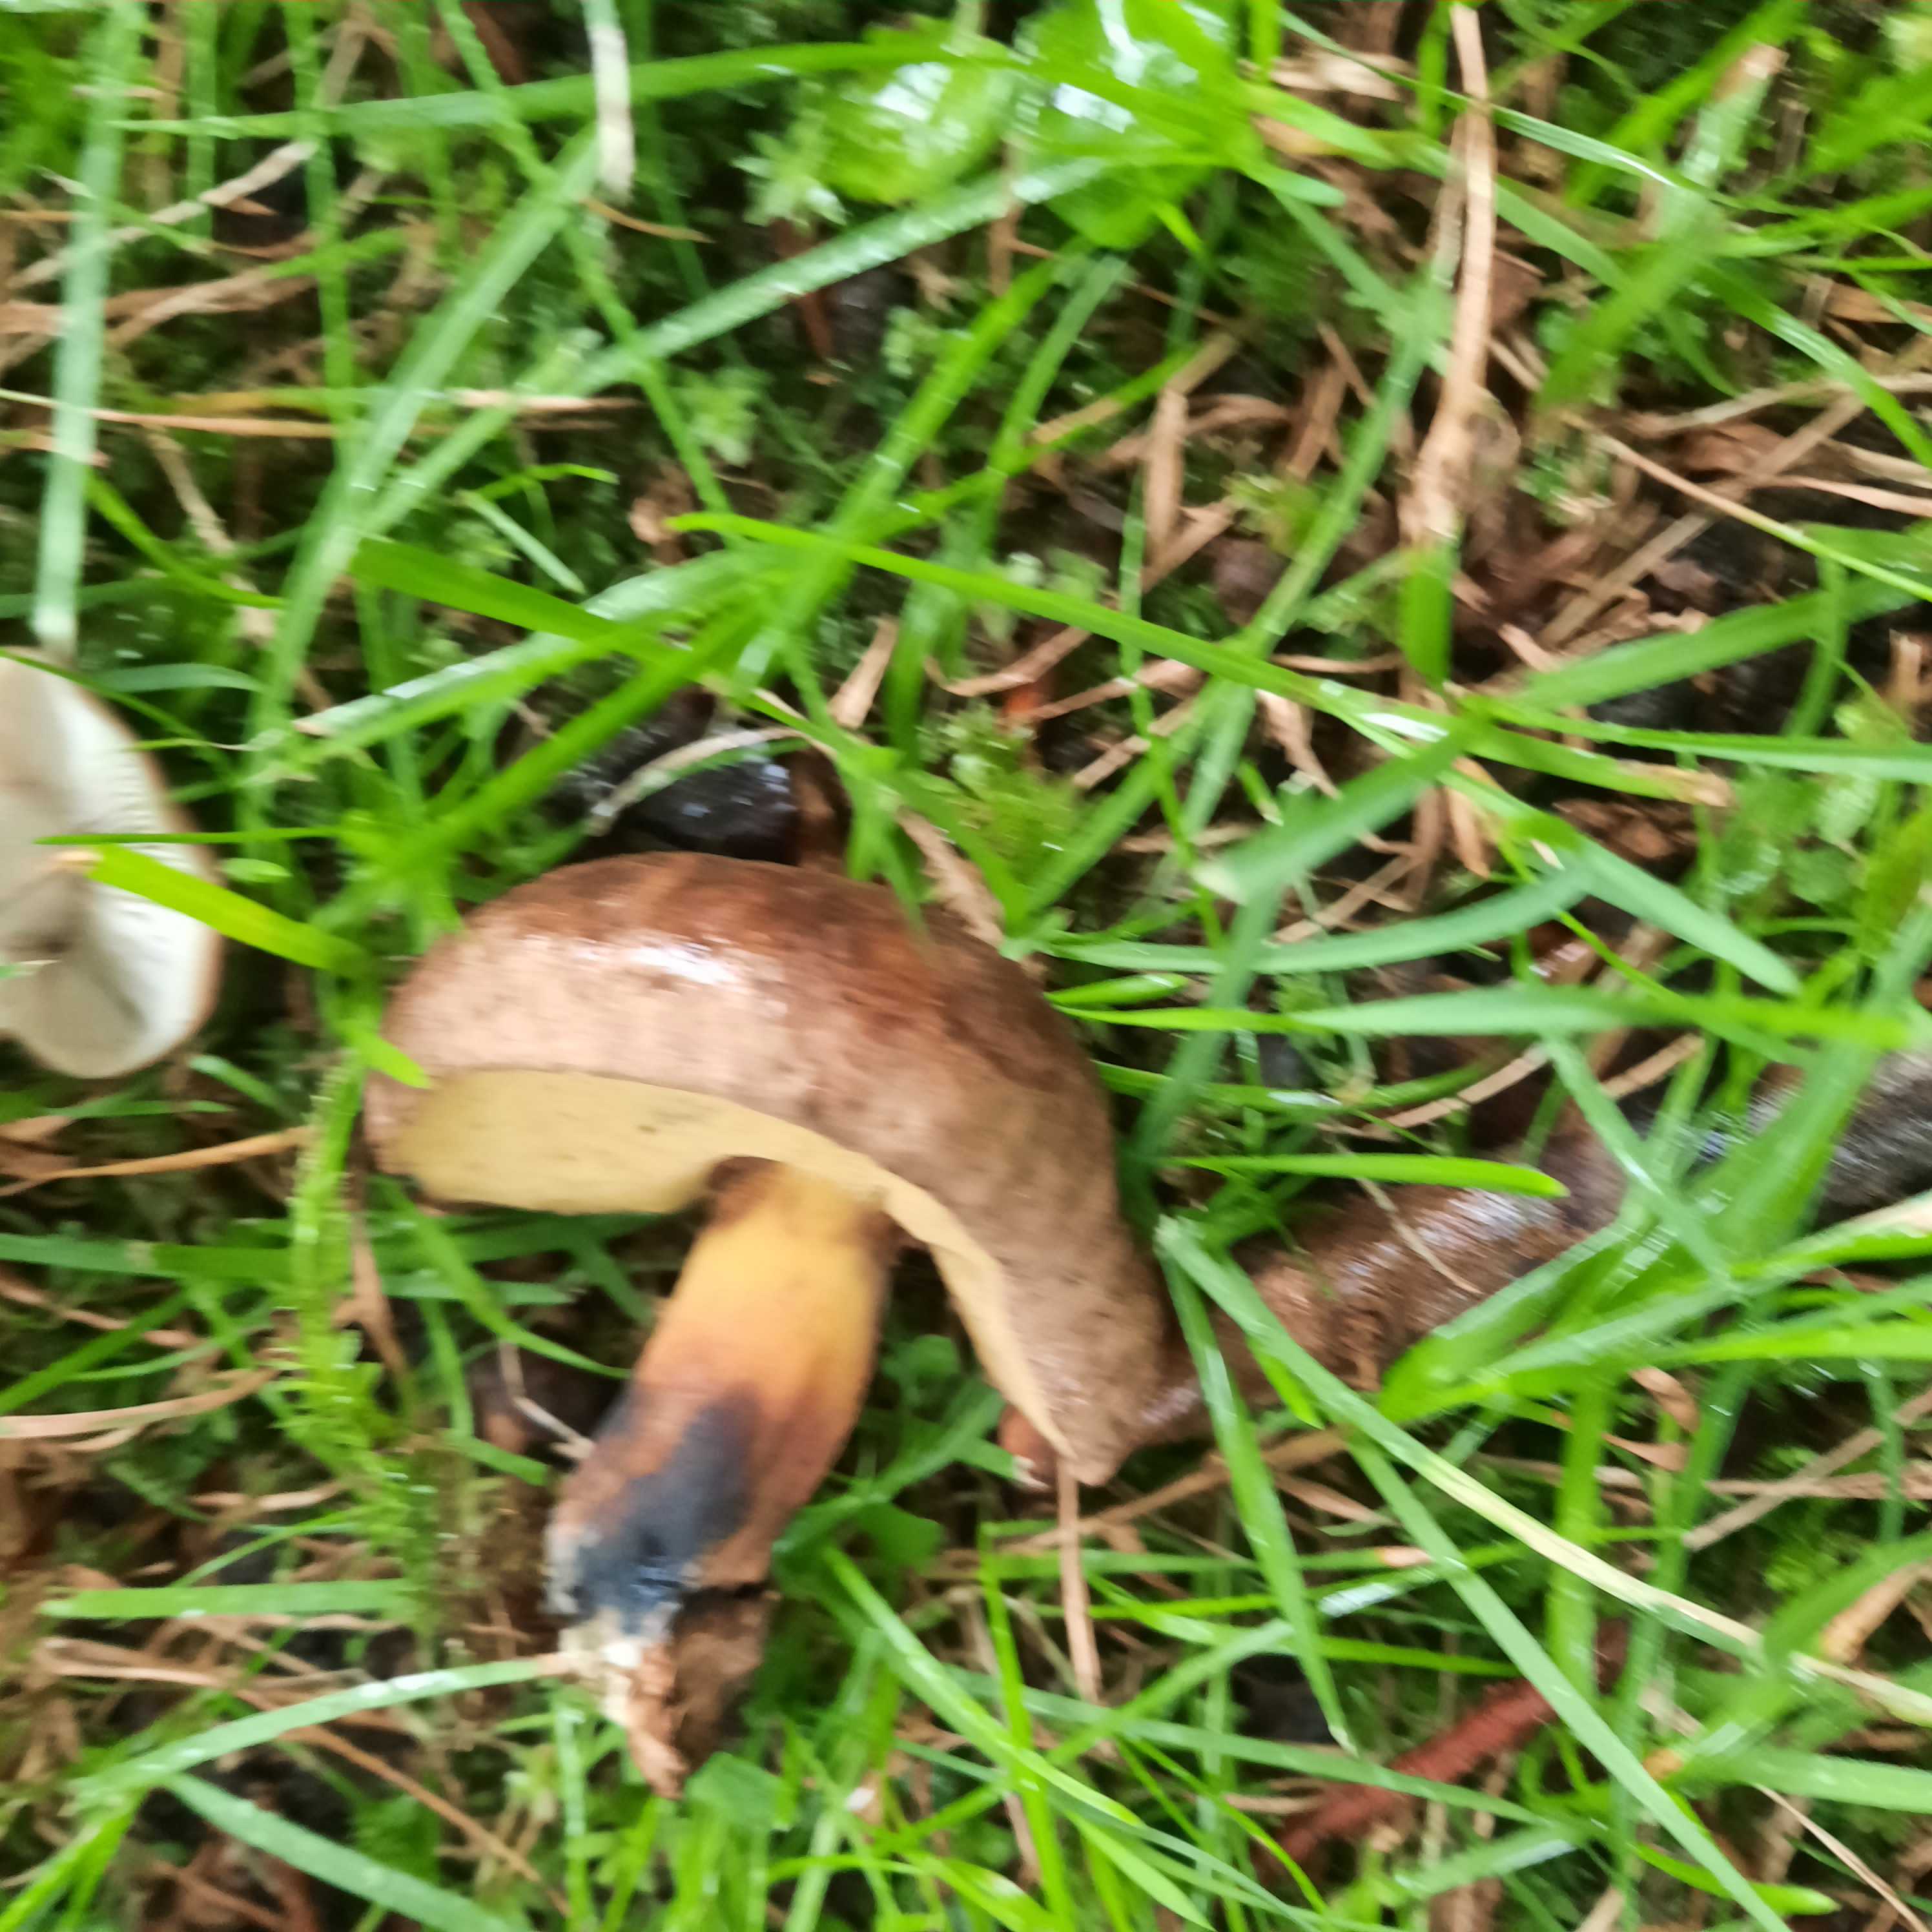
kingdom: Fungi
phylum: Basidiomycota
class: Agaricomycetes
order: Boletales
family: Boletaceae
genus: Cyanoboletus
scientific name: Cyanoboletus pulverulentus
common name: sortblånende rørhat
